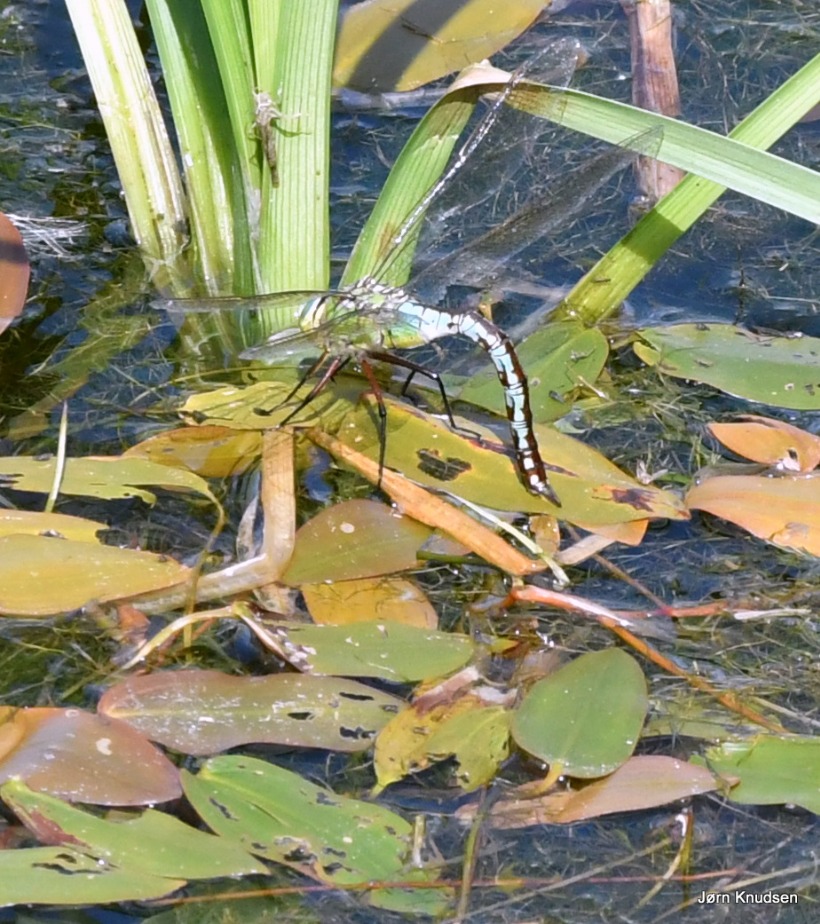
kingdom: Animalia
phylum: Arthropoda
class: Insecta
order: Odonata
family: Aeshnidae
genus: Anax
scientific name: Anax imperator
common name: Stor kejserguldsmed
